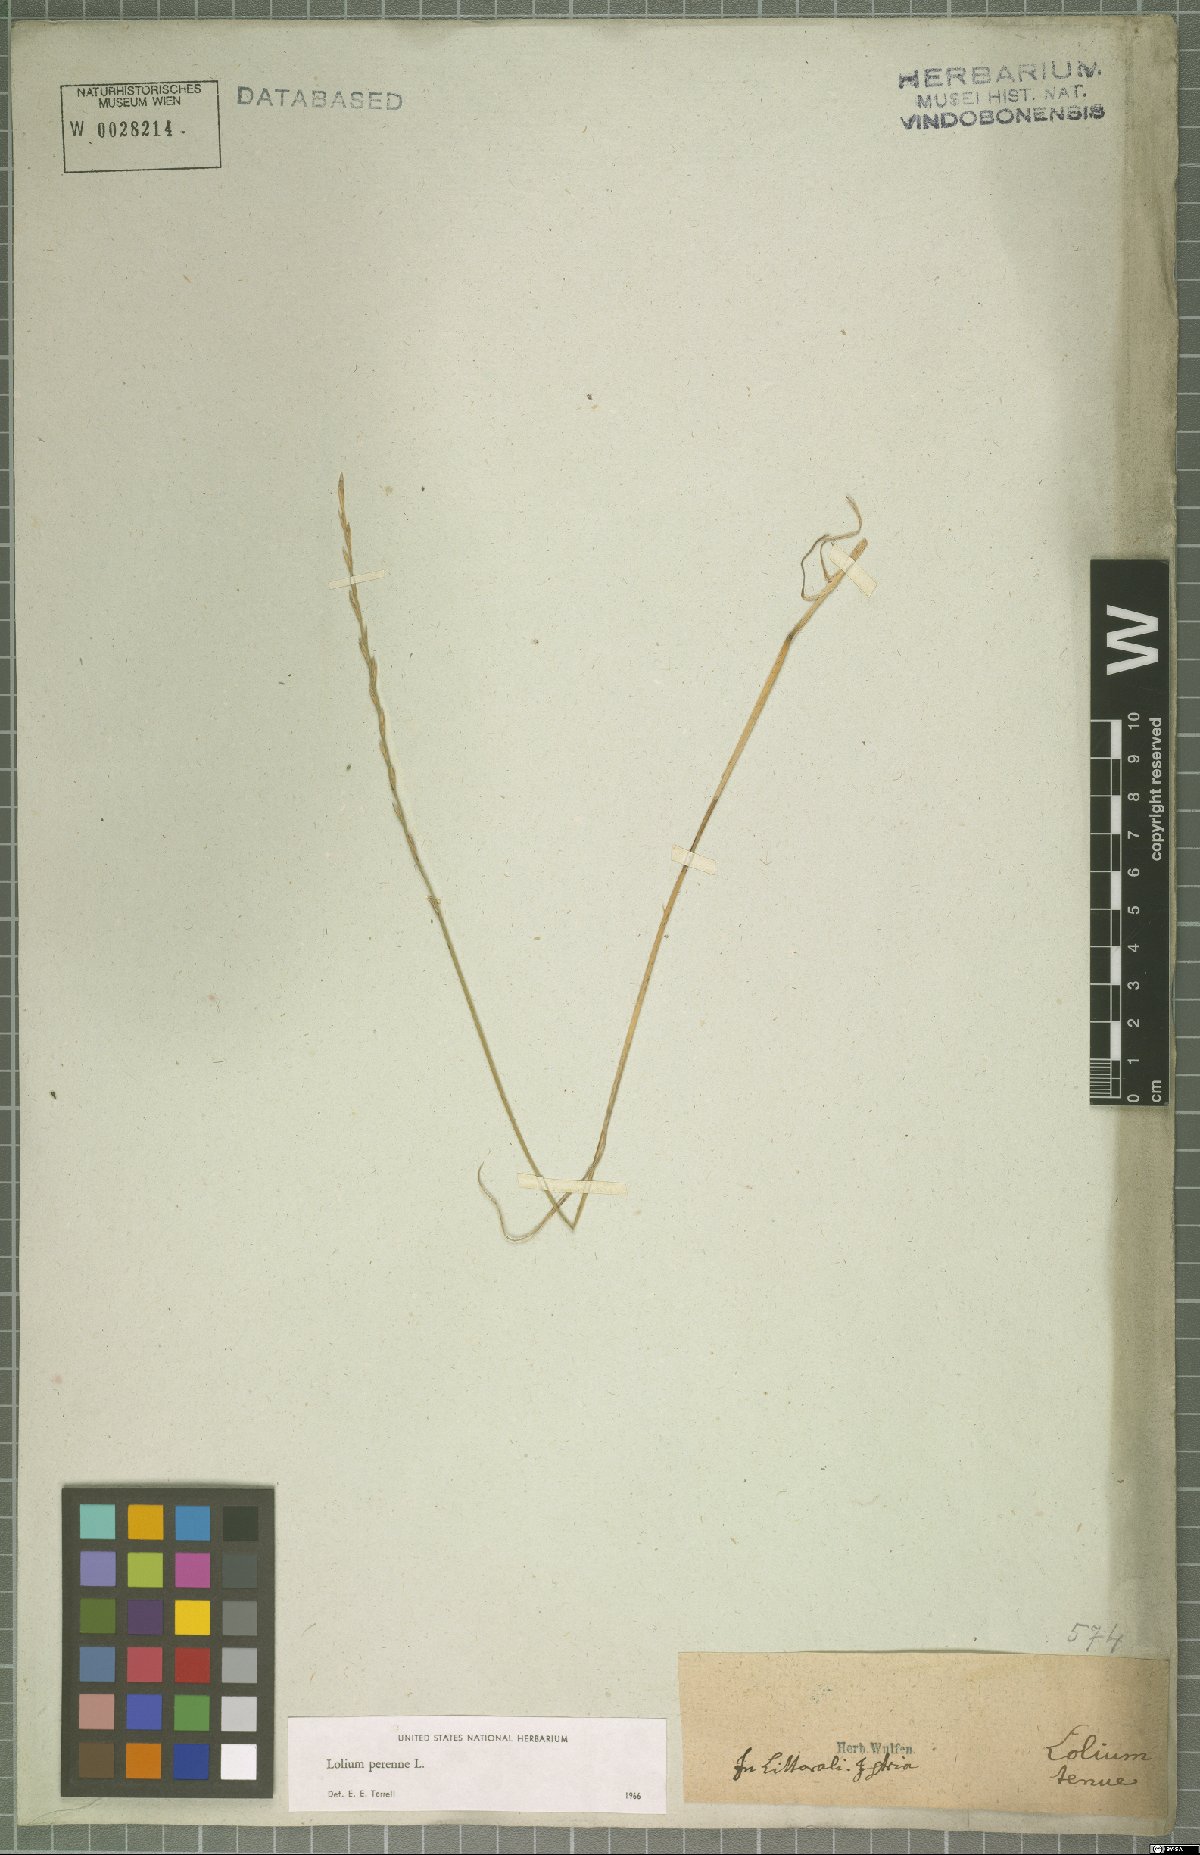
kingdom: Plantae
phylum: Tracheophyta
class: Liliopsida
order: Poales
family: Poaceae
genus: Lolium
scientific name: Lolium perenne
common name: Perennial ryegrass
